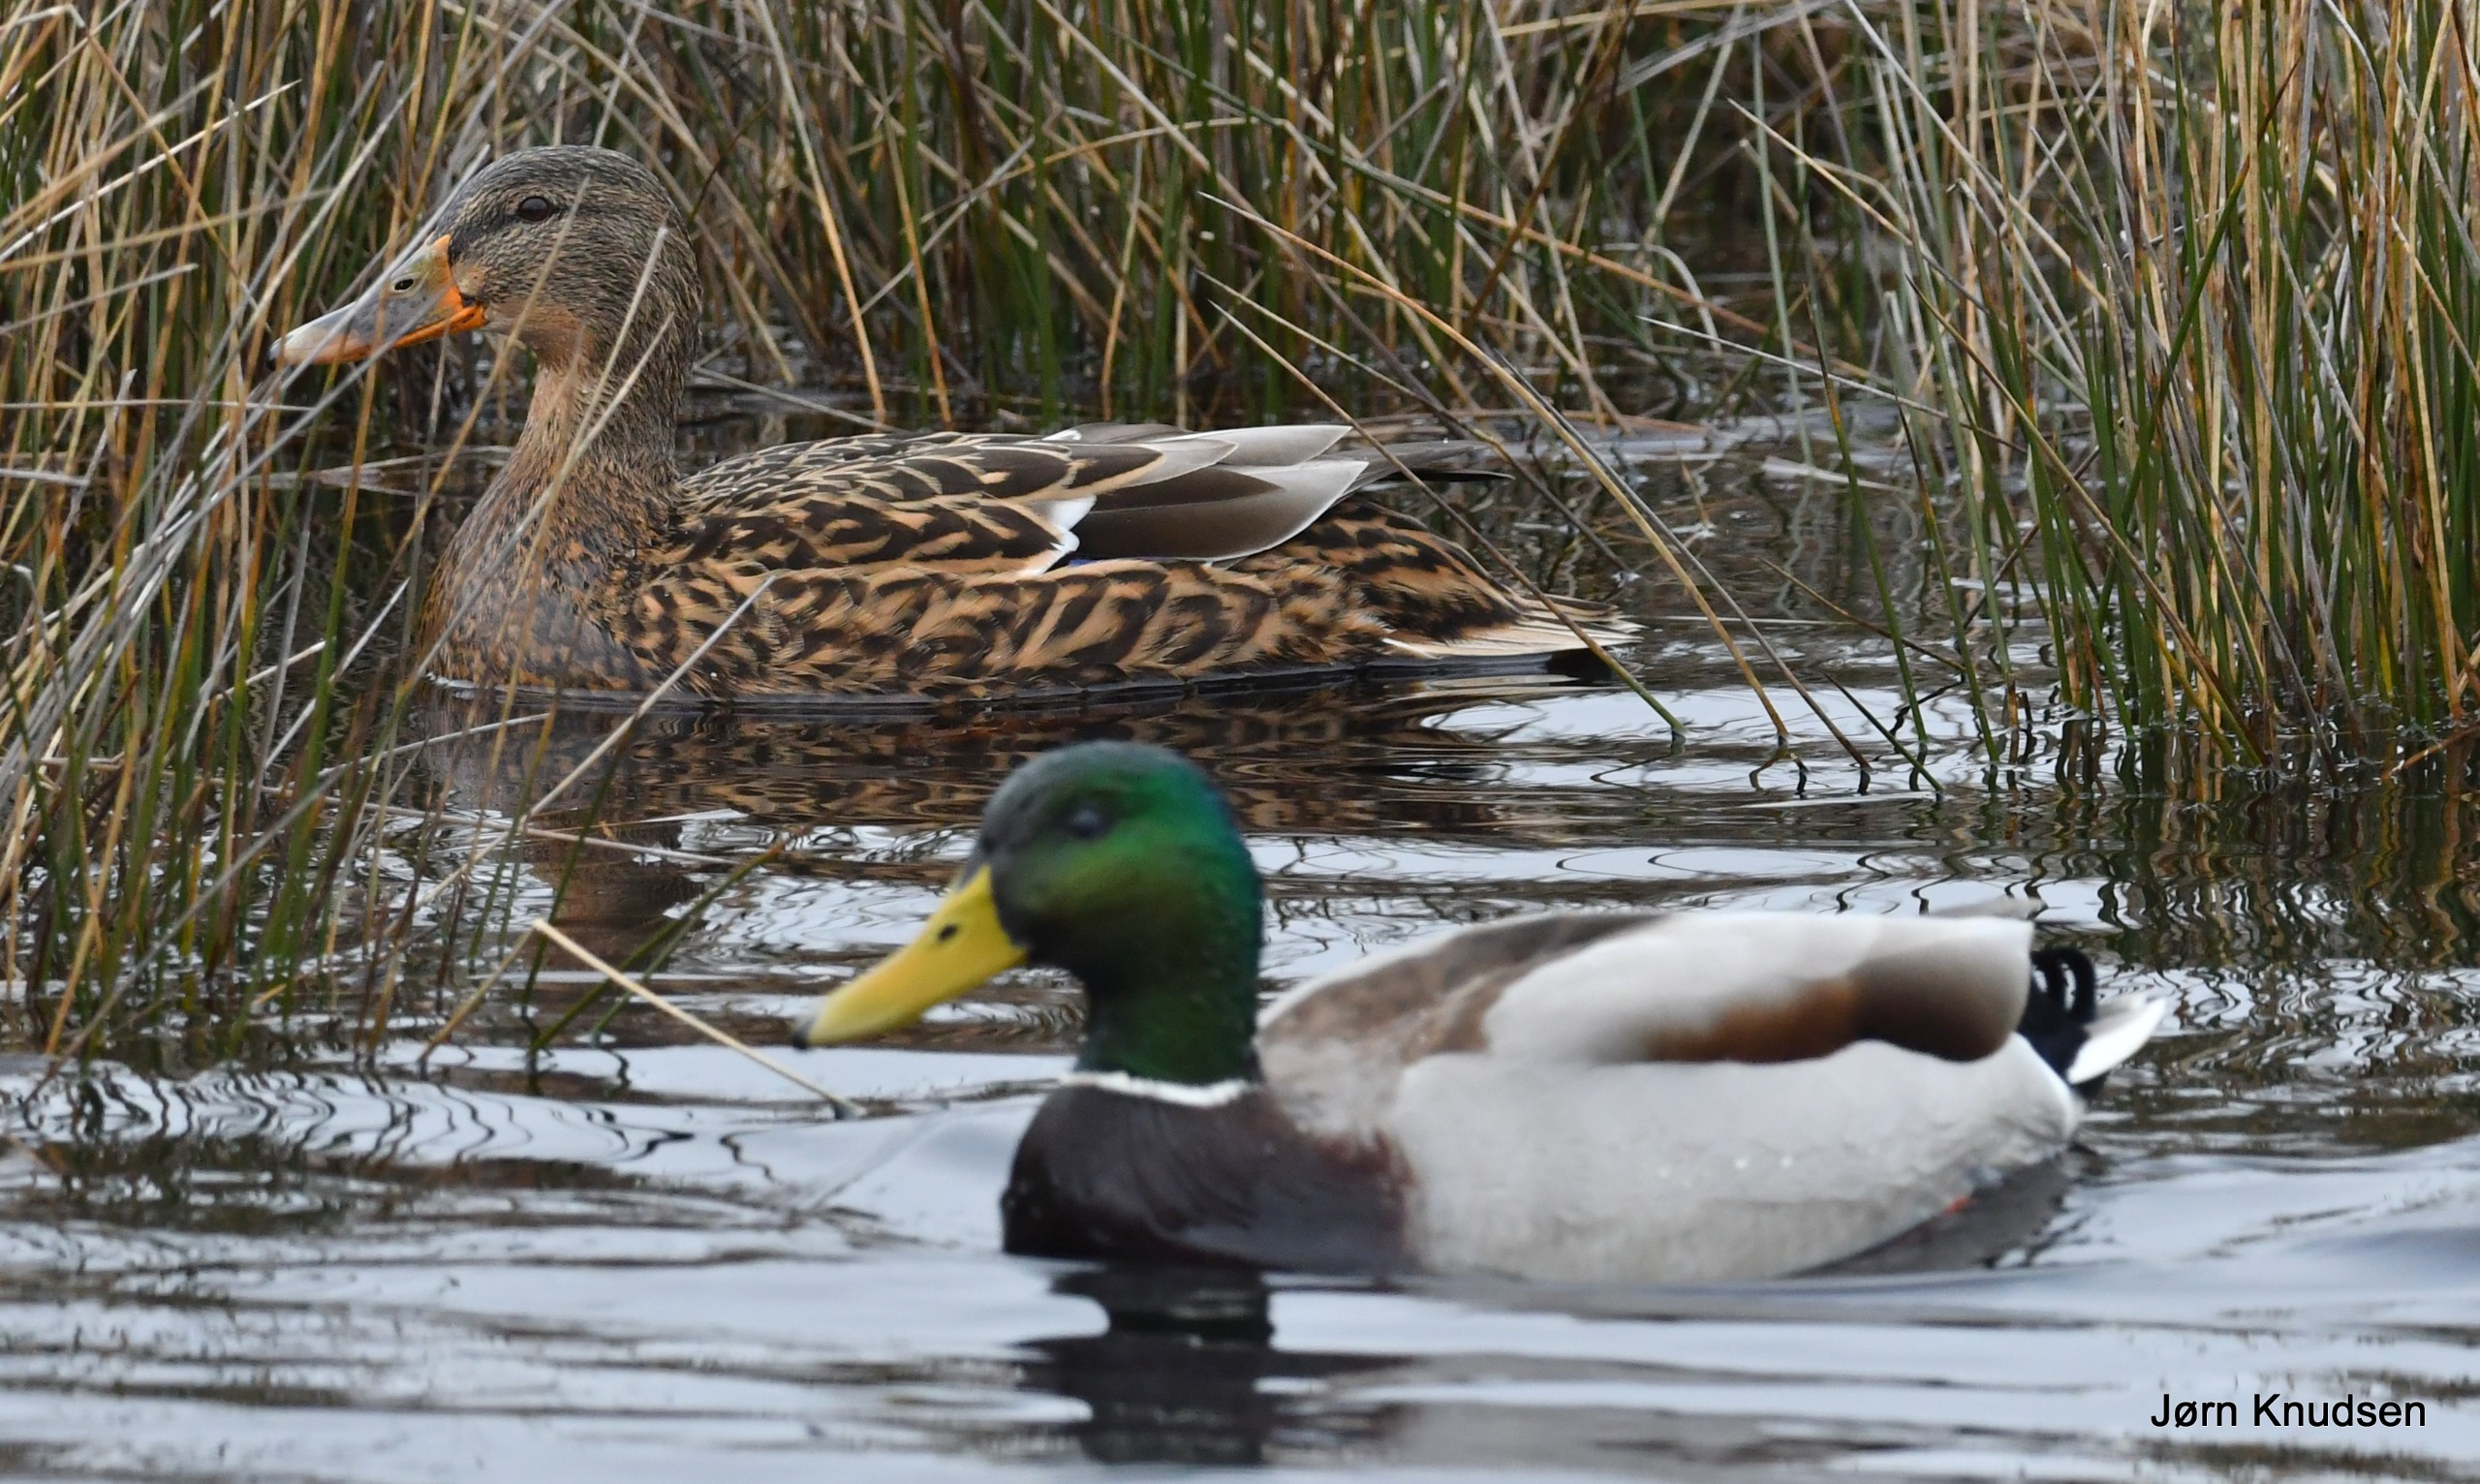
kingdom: Animalia
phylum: Chordata
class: Aves
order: Anseriformes
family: Anatidae
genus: Anas
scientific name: Anas platyrhynchos
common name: Gråand
